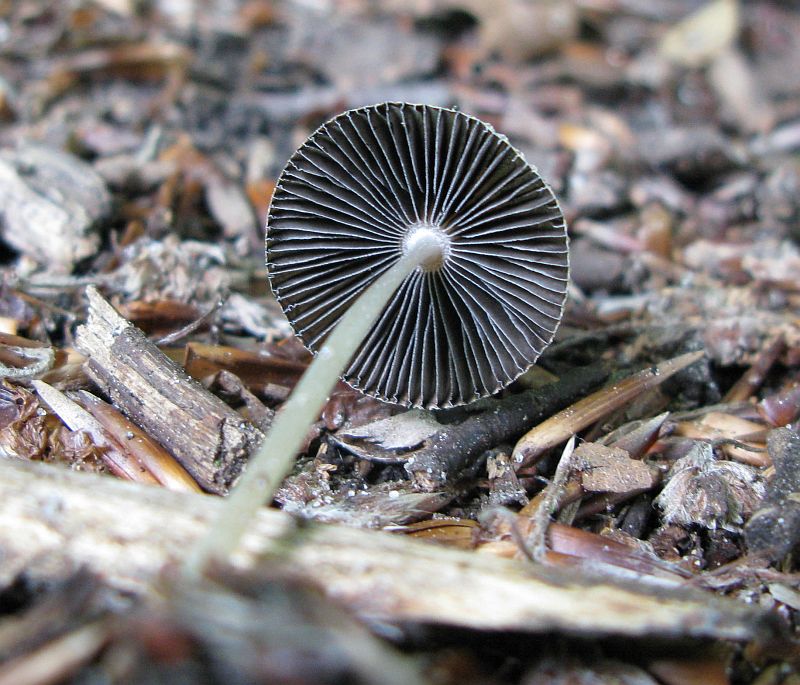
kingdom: Fungi
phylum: Basidiomycota
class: Agaricomycetes
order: Agaricales
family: Psathyrellaceae
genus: Parasola
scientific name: Parasola kuehneri
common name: skygge-hjulhat
